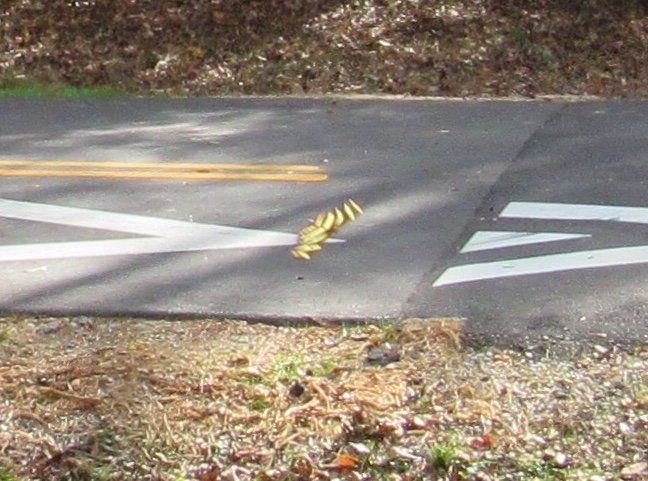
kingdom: Animalia
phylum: Arthropoda
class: Insecta
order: Lepidoptera
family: Nymphalidae
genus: Heliconius
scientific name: Heliconius charithonia
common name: Zebra Longwing
